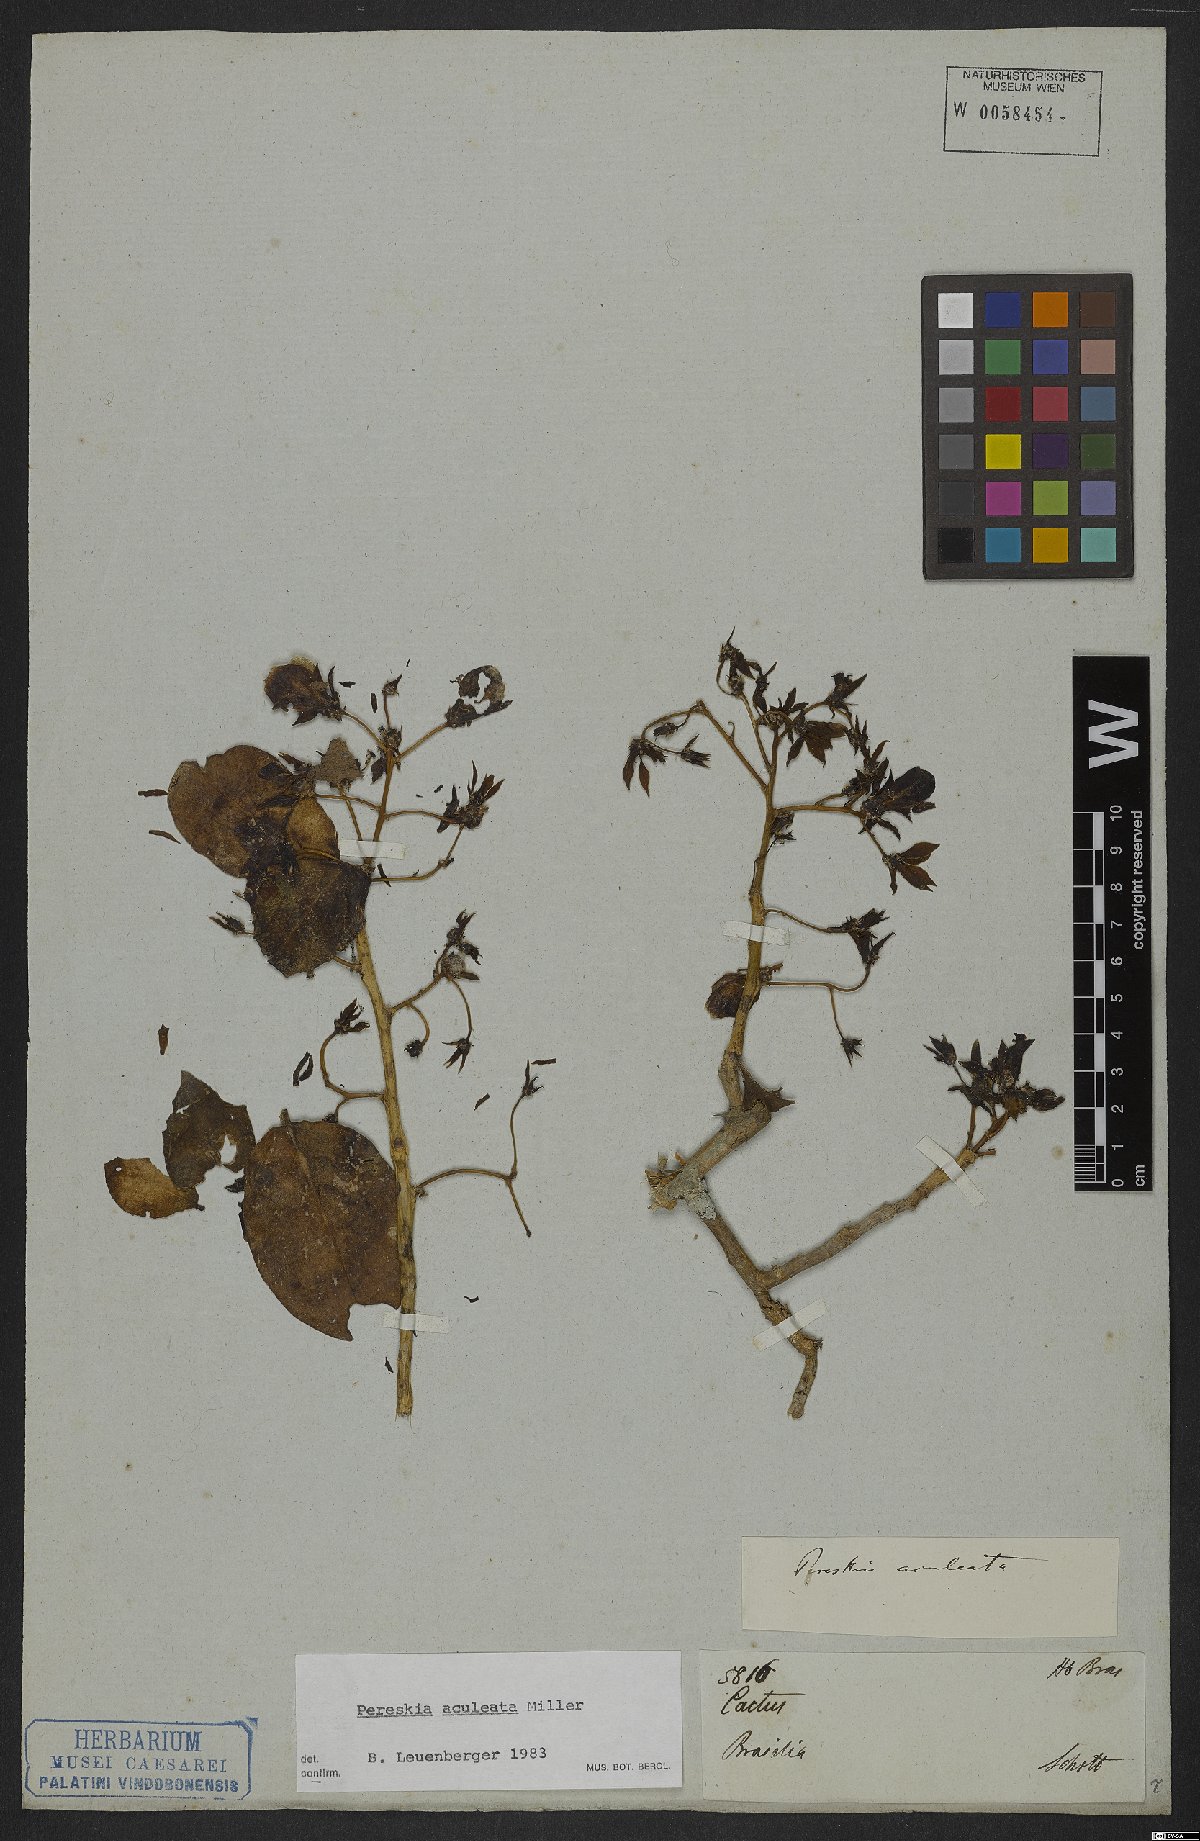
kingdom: Plantae
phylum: Tracheophyta
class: Magnoliopsida
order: Caryophyllales
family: Cactaceae
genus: Pereskia
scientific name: Pereskia aculeata
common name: Barbados gooseberry
